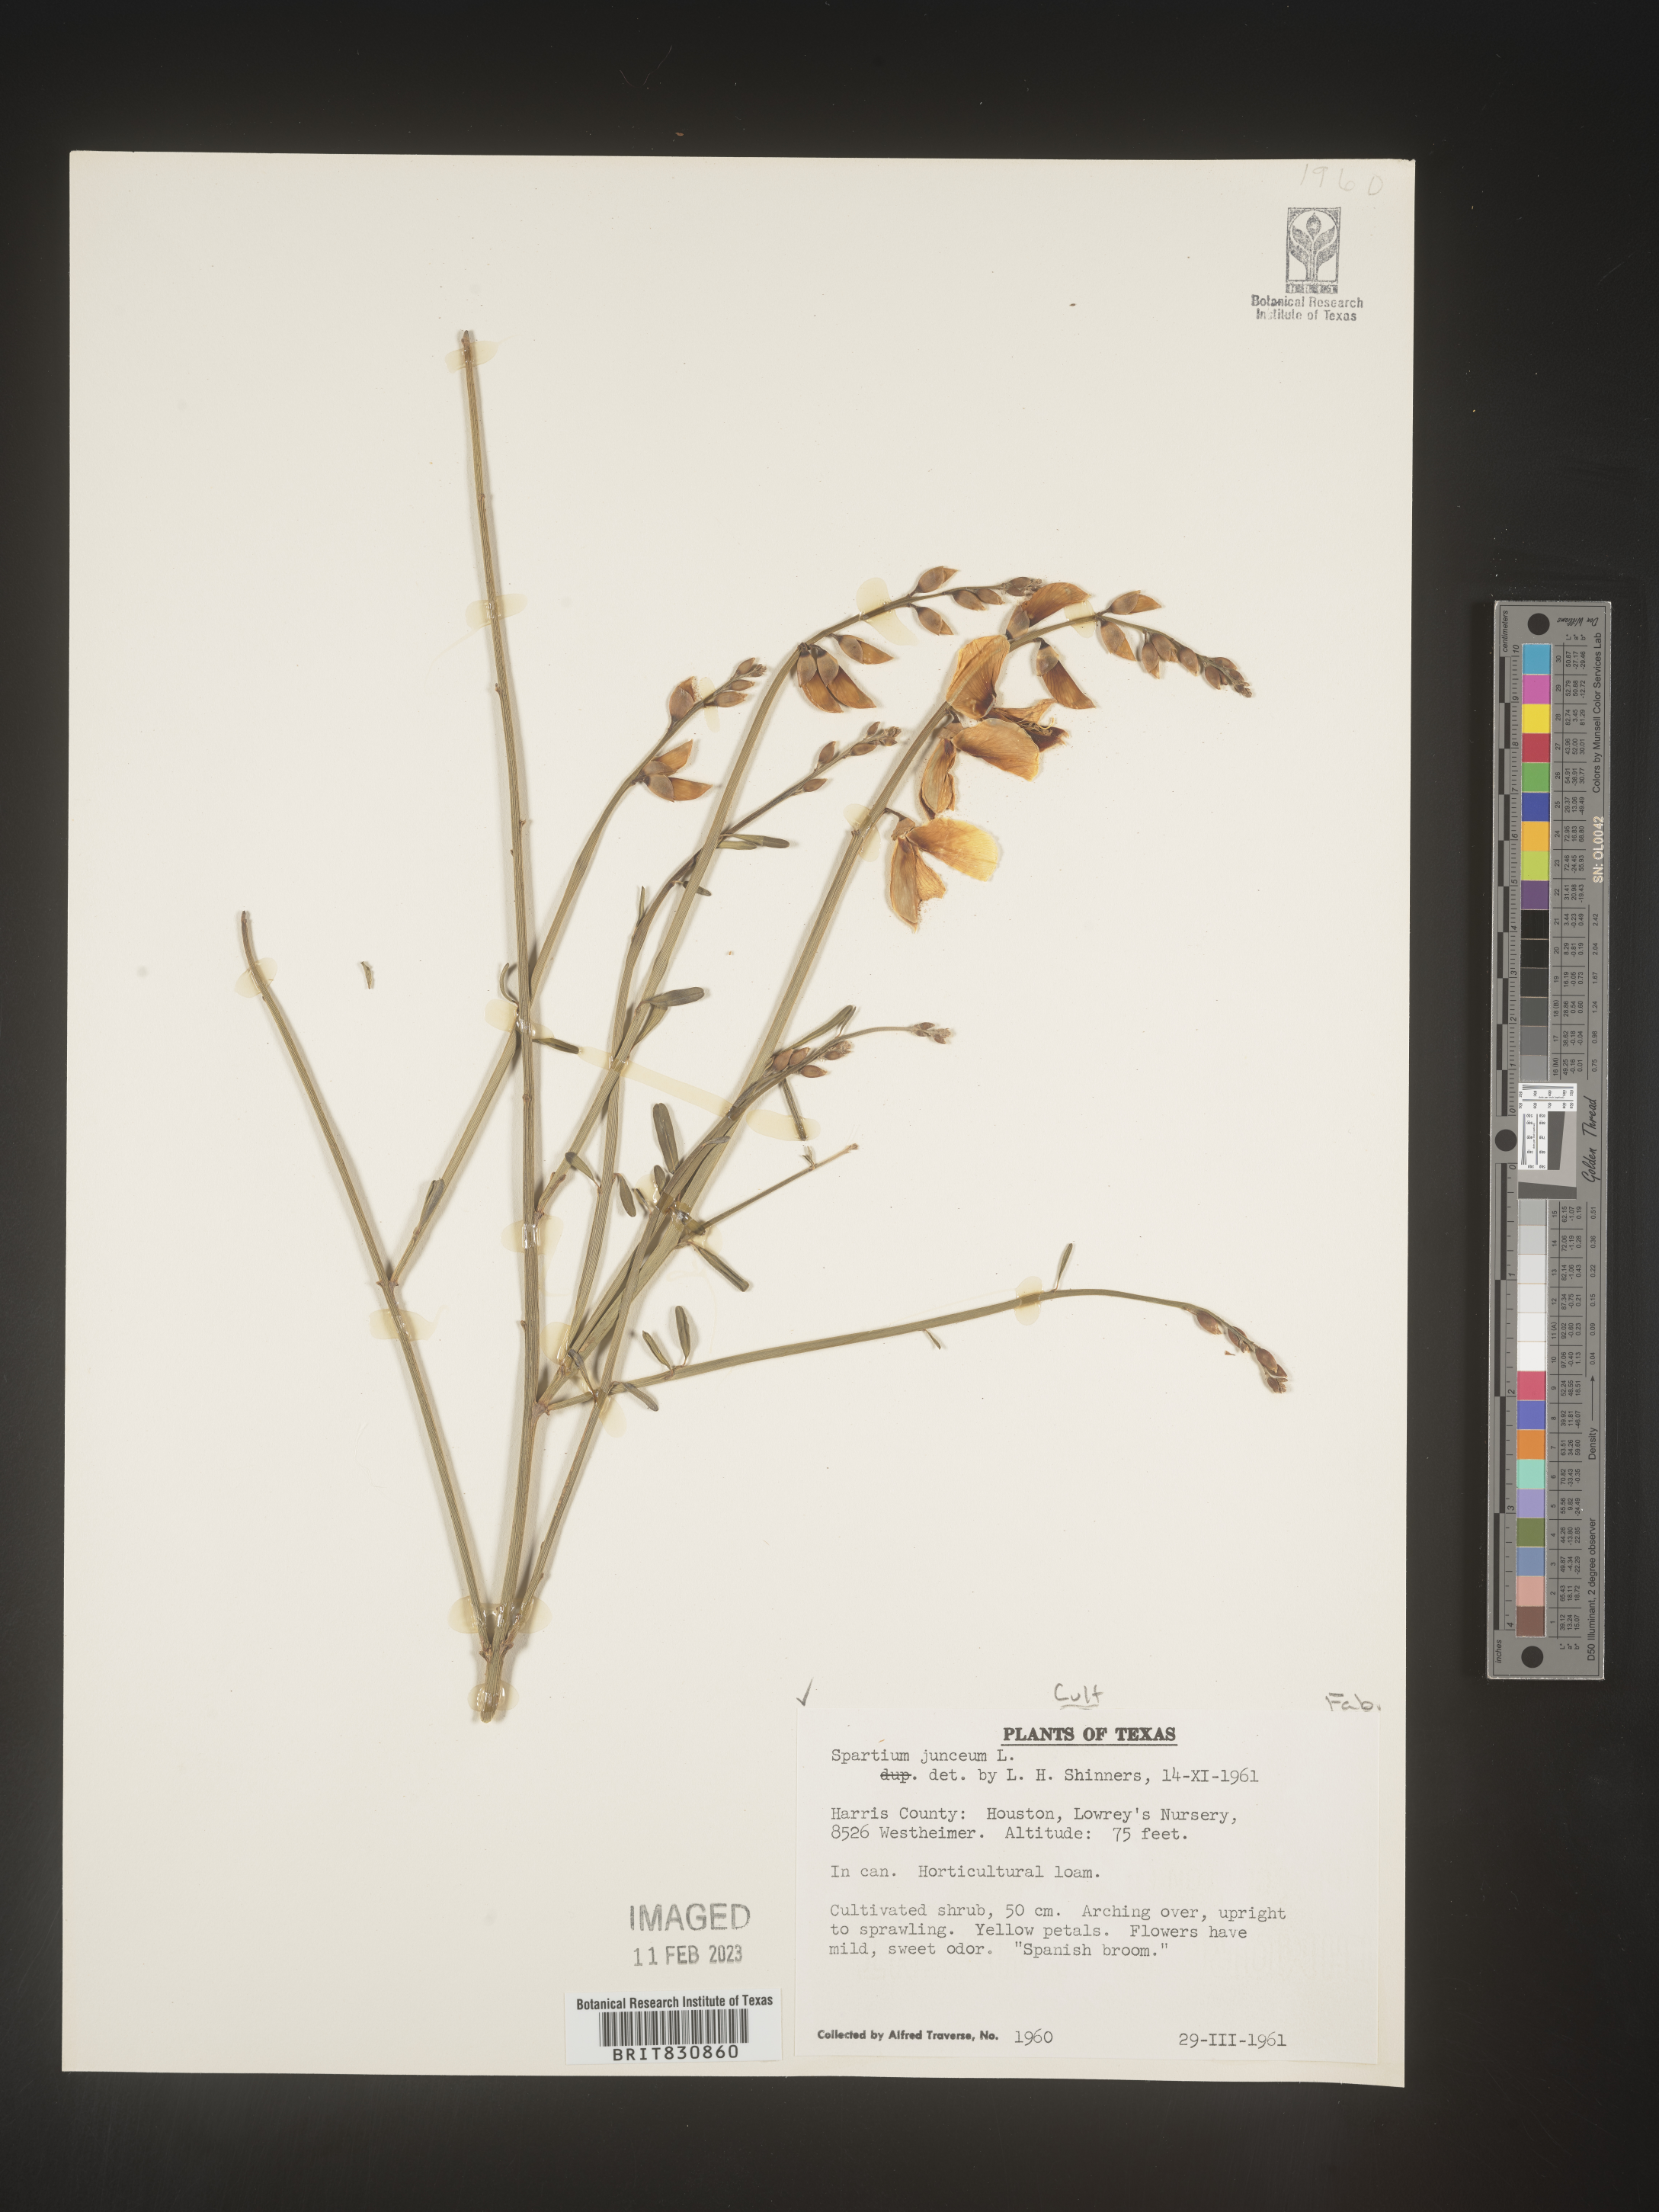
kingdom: Plantae
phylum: Tracheophyta
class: Magnoliopsida
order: Fabales
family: Fabaceae
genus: Spartium
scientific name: Spartium
